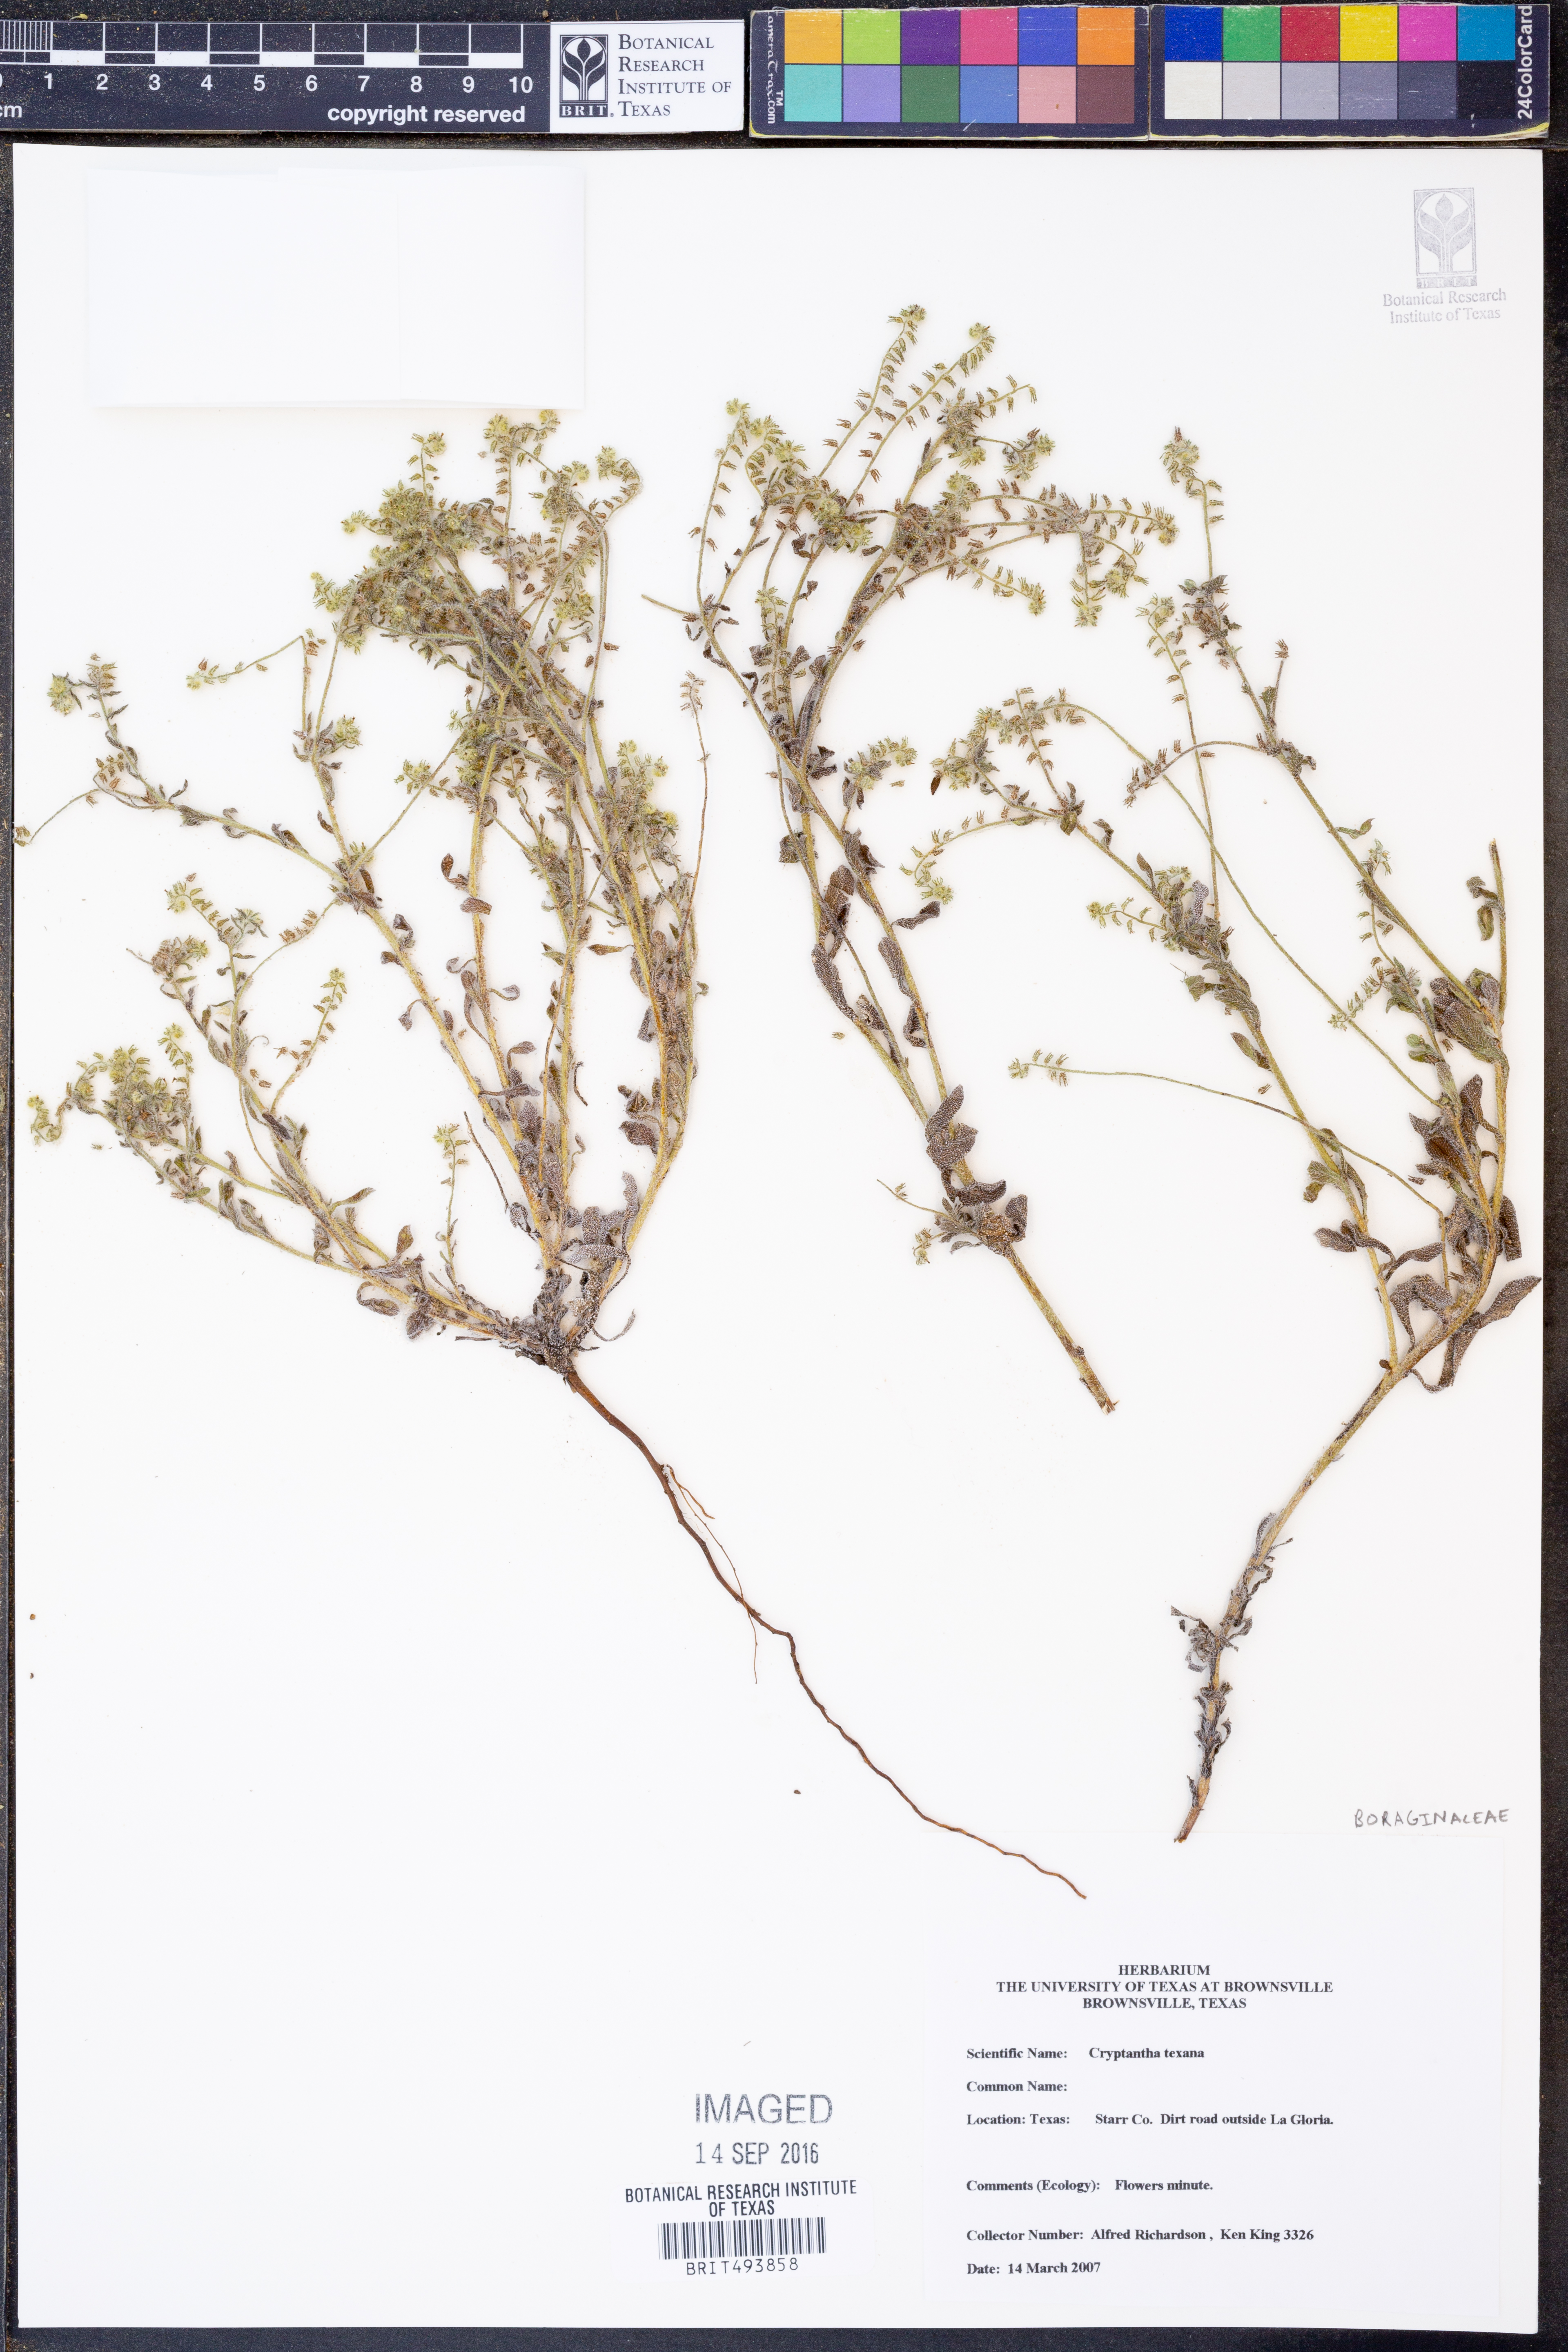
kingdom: Plantae
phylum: Tracheophyta
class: Magnoliopsida
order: Boraginales
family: Boraginaceae
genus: Cryptantha
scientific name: Cryptantha texana
